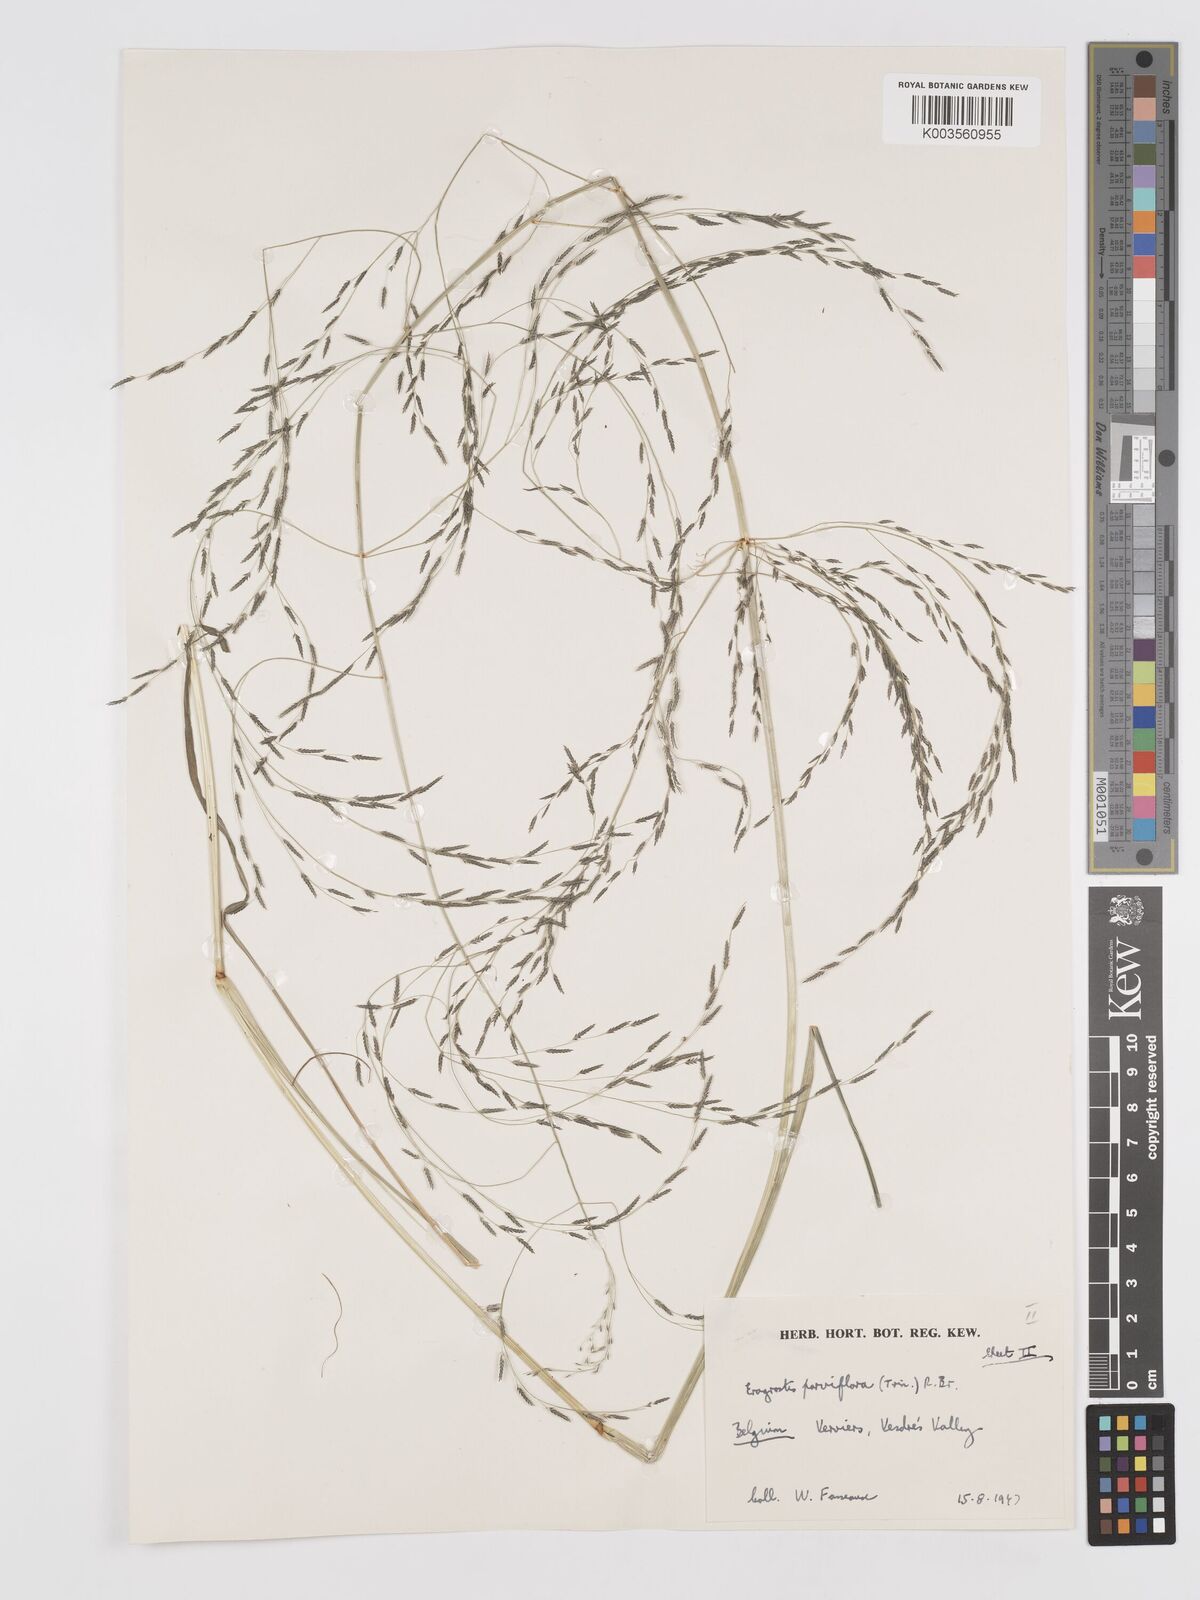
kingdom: Plantae
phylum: Tracheophyta
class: Liliopsida
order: Poales
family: Poaceae
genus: Eragrostis
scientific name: Eragrostis parviflora
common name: Weeping love-grass
